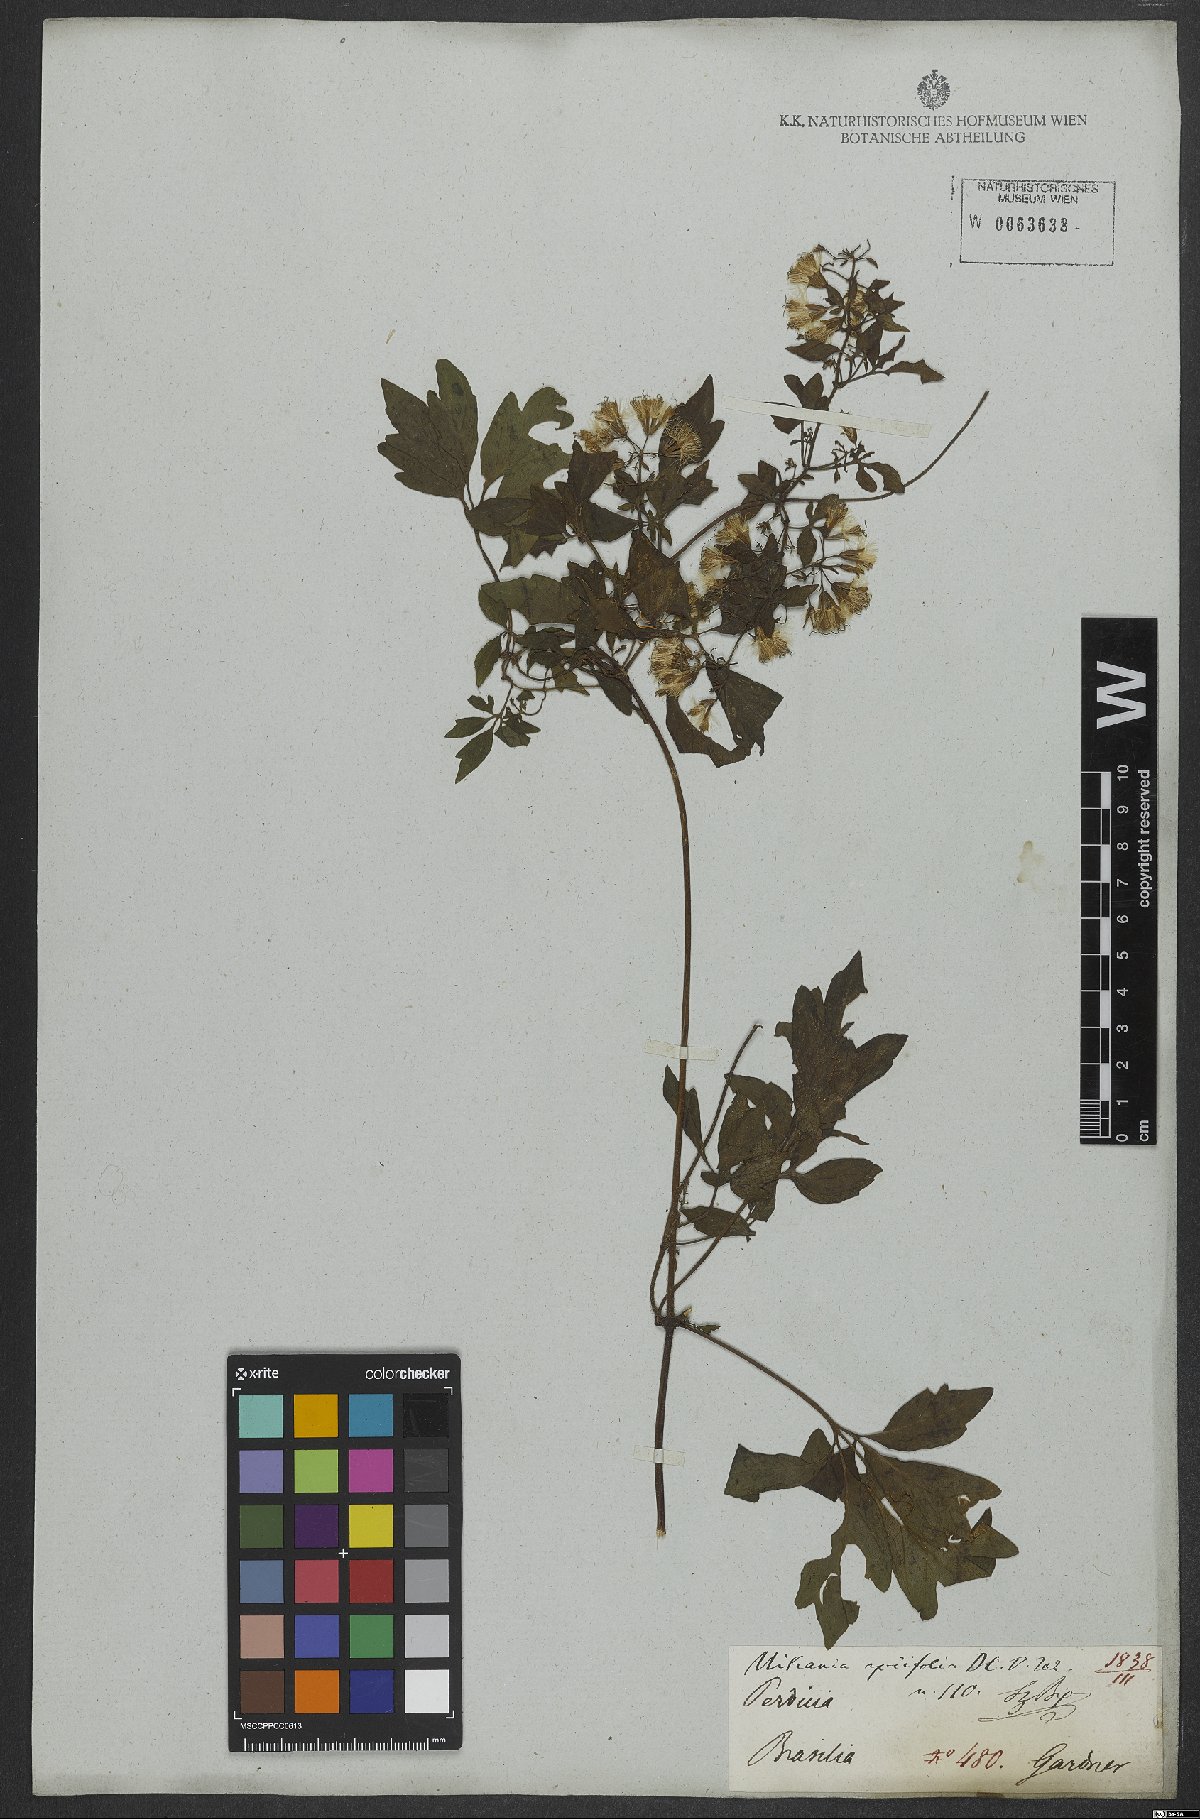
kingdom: Plantae
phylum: Tracheophyta
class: Magnoliopsida
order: Asterales
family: Asteraceae
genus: Mikania
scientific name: Mikania ternata
